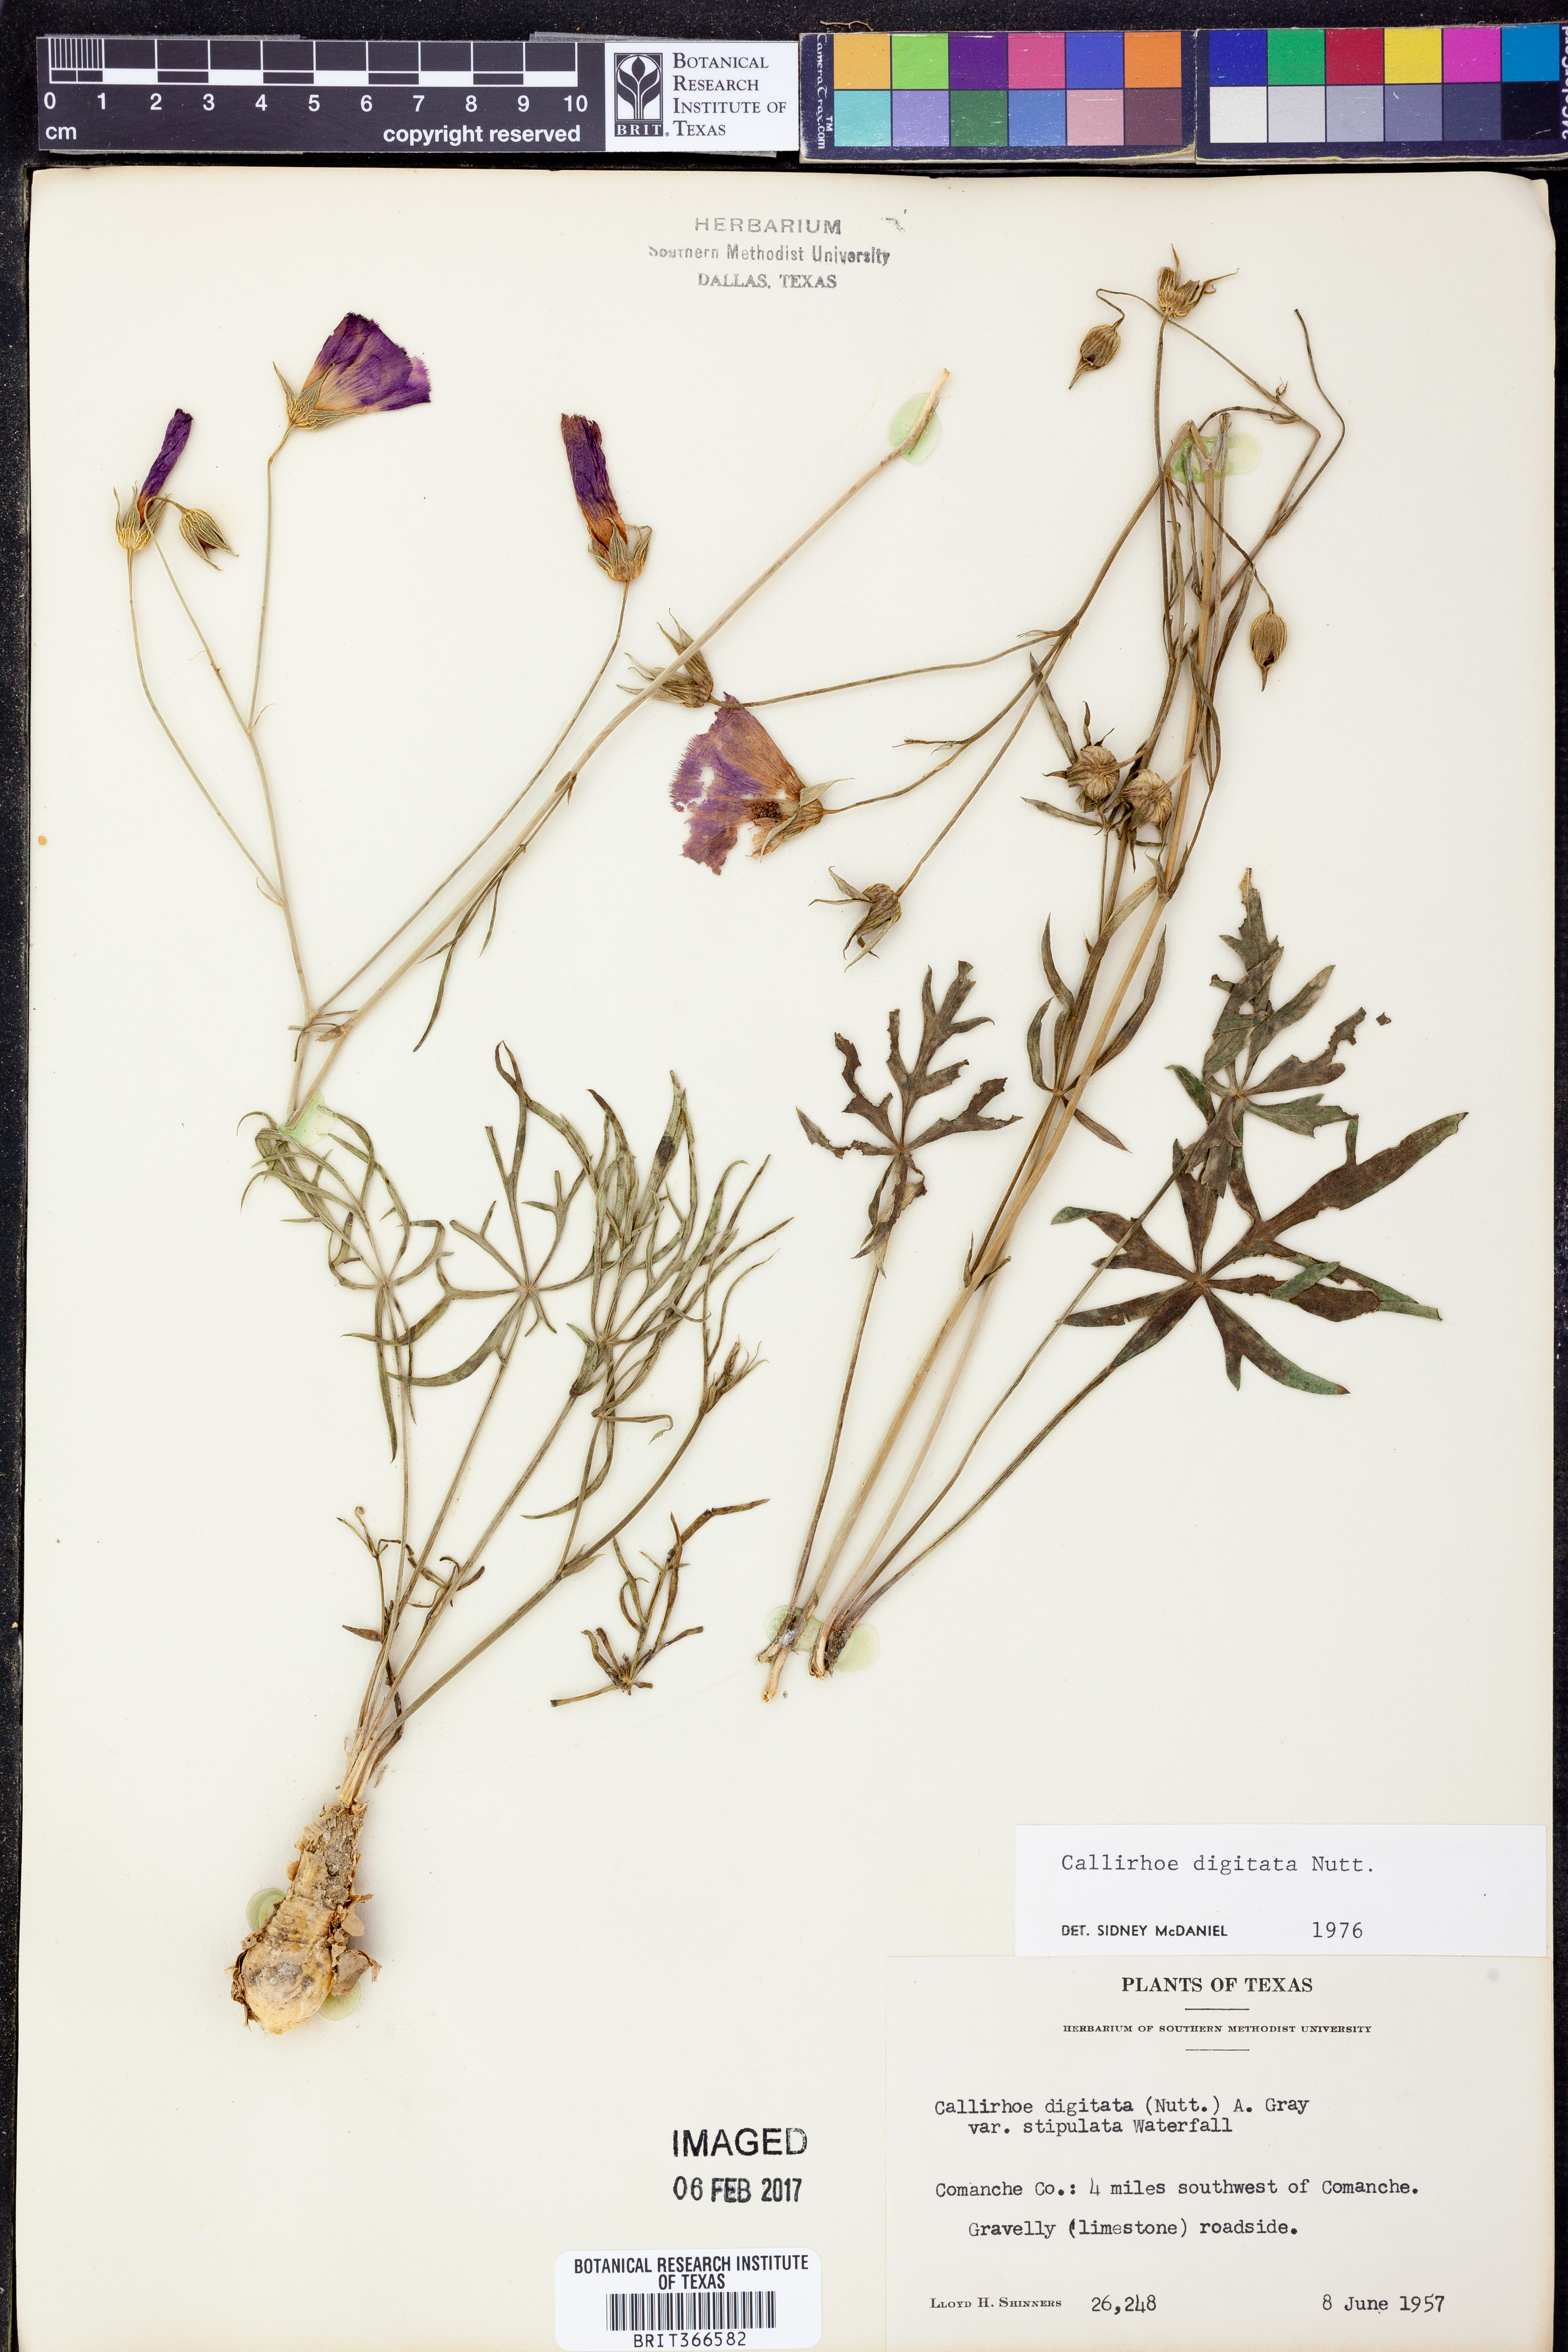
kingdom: Plantae
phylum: Tracheophyta
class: Magnoliopsida
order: Malvales
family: Malvaceae
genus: Callirhoe
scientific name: Callirhoe digitata
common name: Finger poppy-mallow
